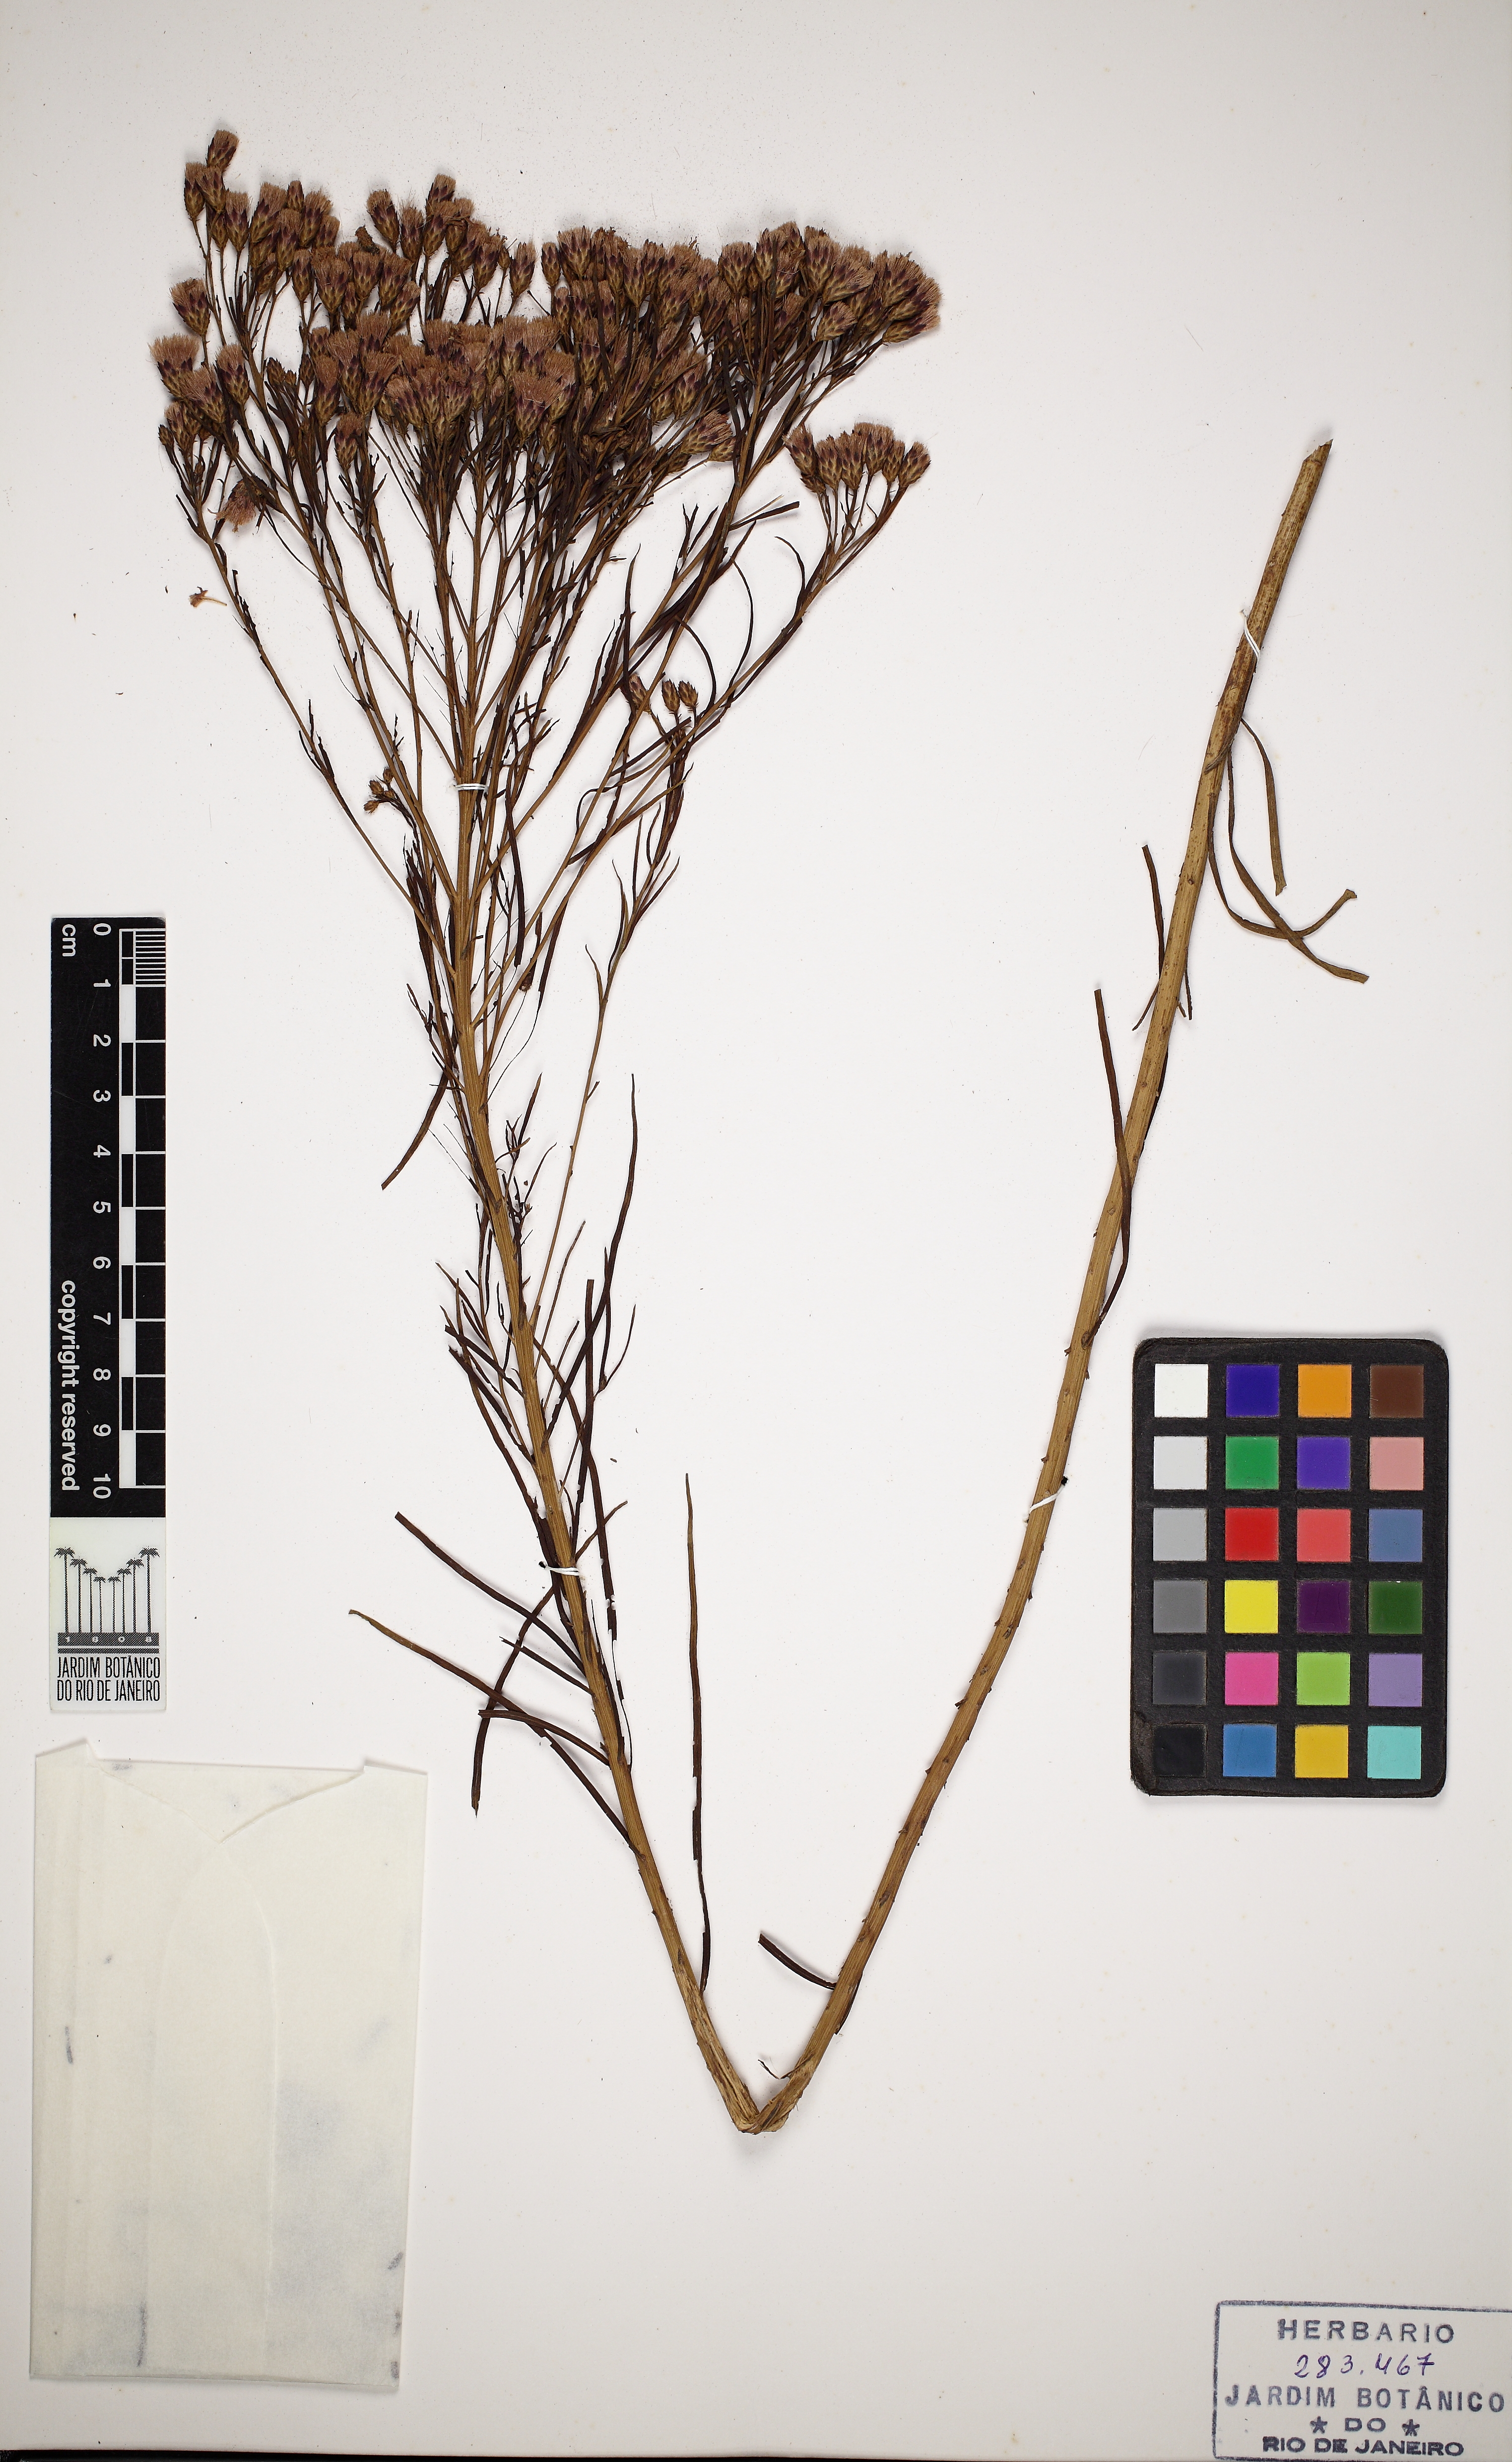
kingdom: Plantae
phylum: Tracheophyta
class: Magnoliopsida
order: Asterales
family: Asteraceae
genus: Vernonia
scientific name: Vernonia lettermannii
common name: Lettermann's ironweed
